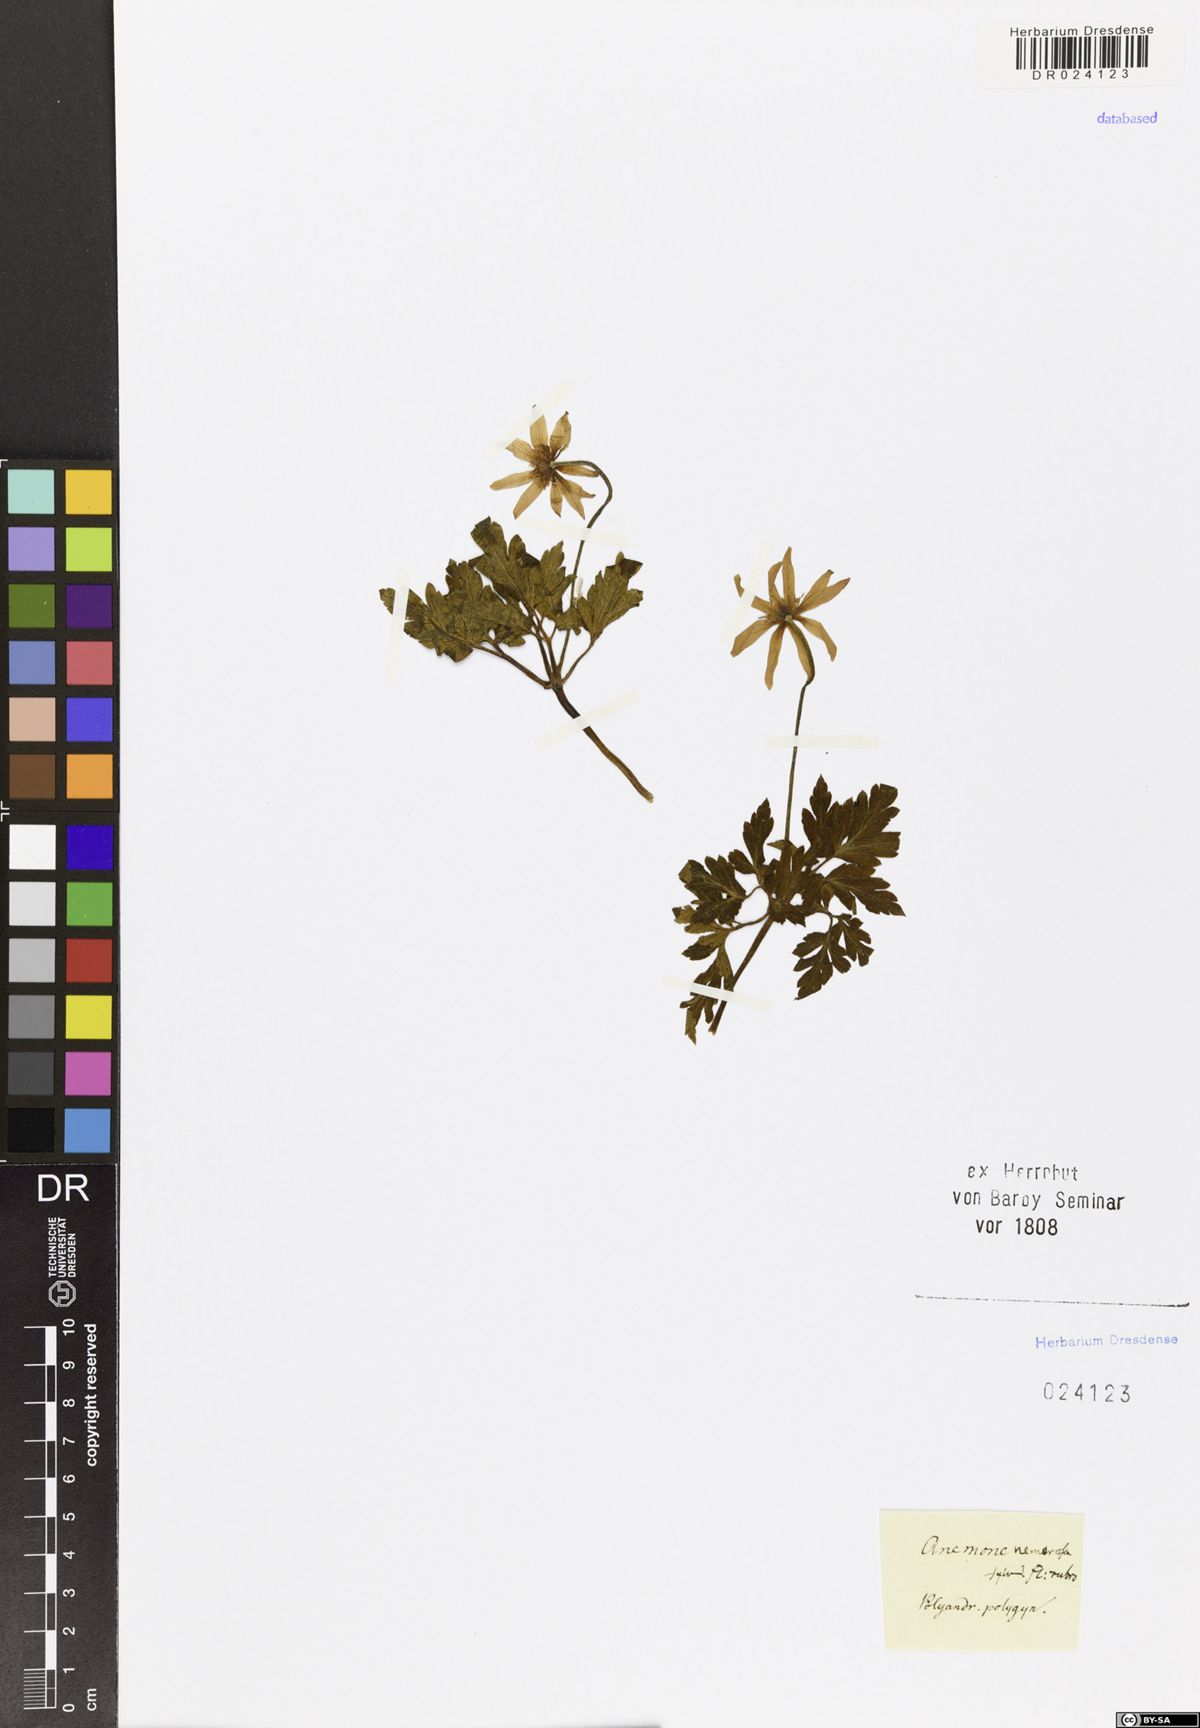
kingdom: Plantae
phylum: Tracheophyta
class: Magnoliopsida
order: Ranunculales
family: Ranunculaceae
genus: Anemone
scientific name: Anemone blanda
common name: Balkan anemone
